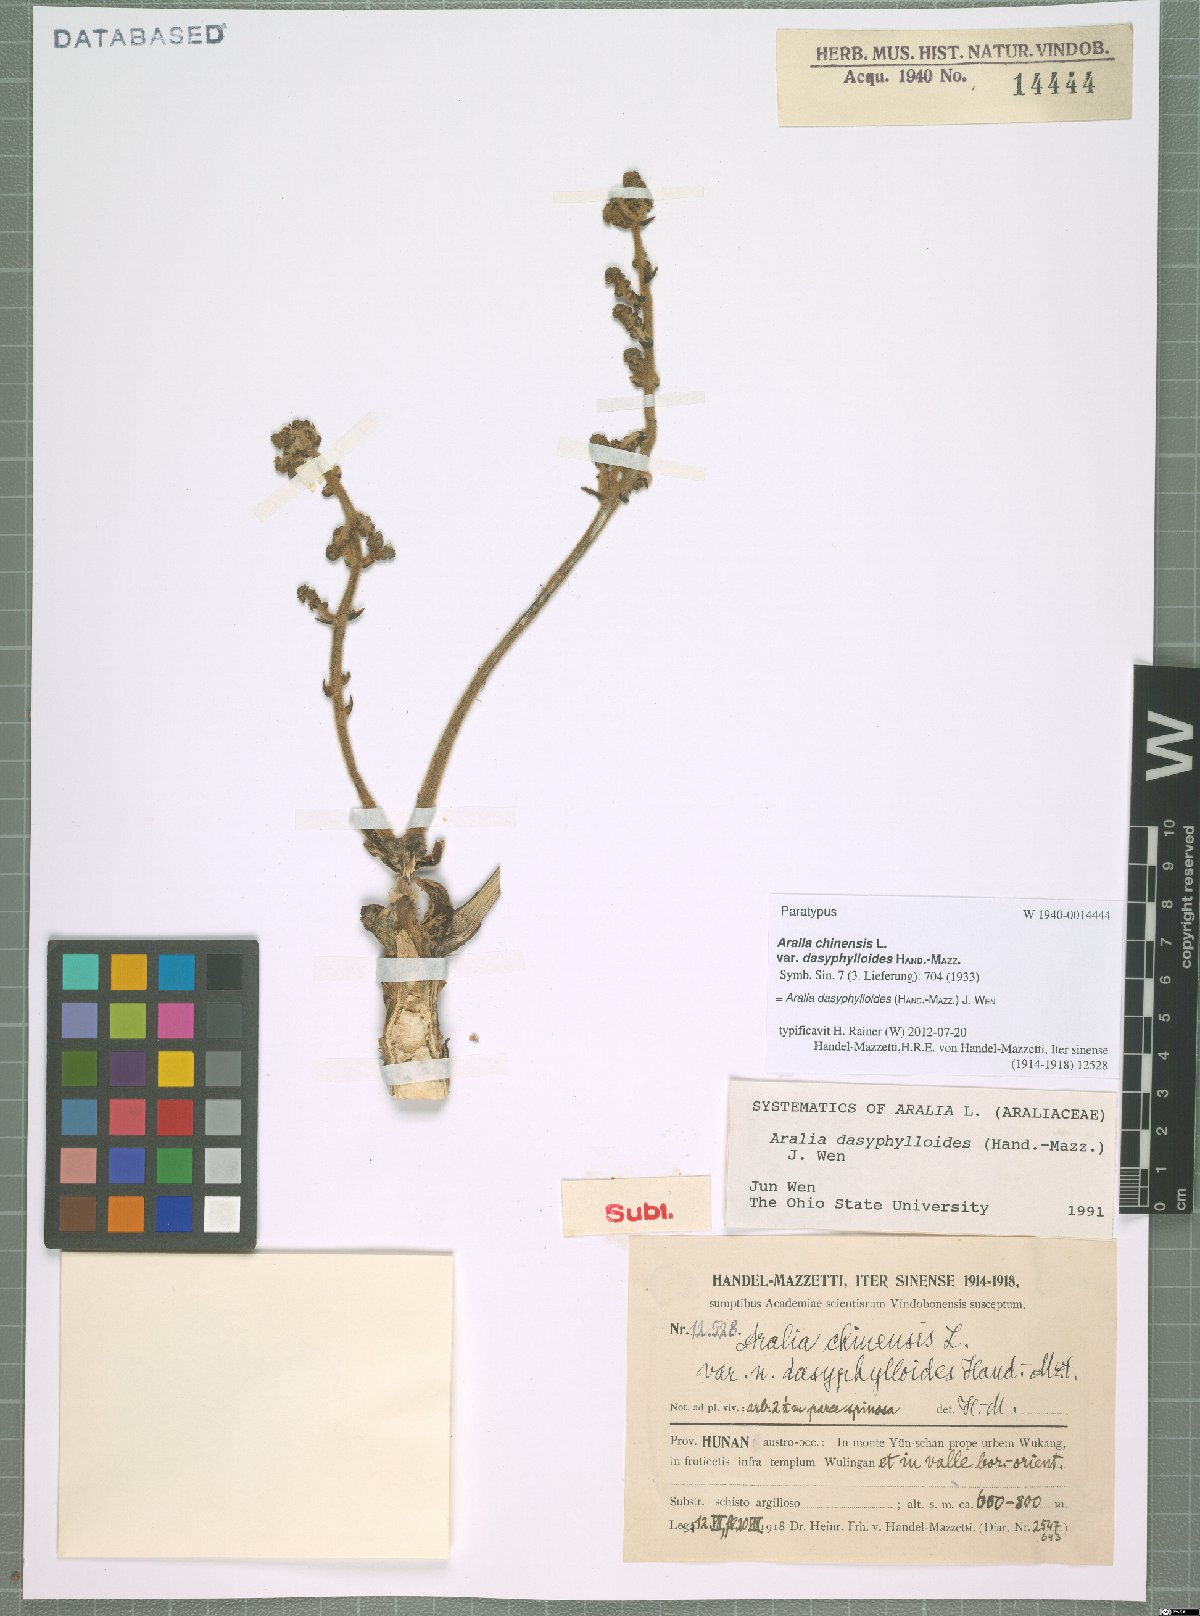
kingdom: Plantae
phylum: Tracheophyta
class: Magnoliopsida
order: Apiales
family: Araliaceae
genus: Aralia
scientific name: Aralia dasyphylloides
